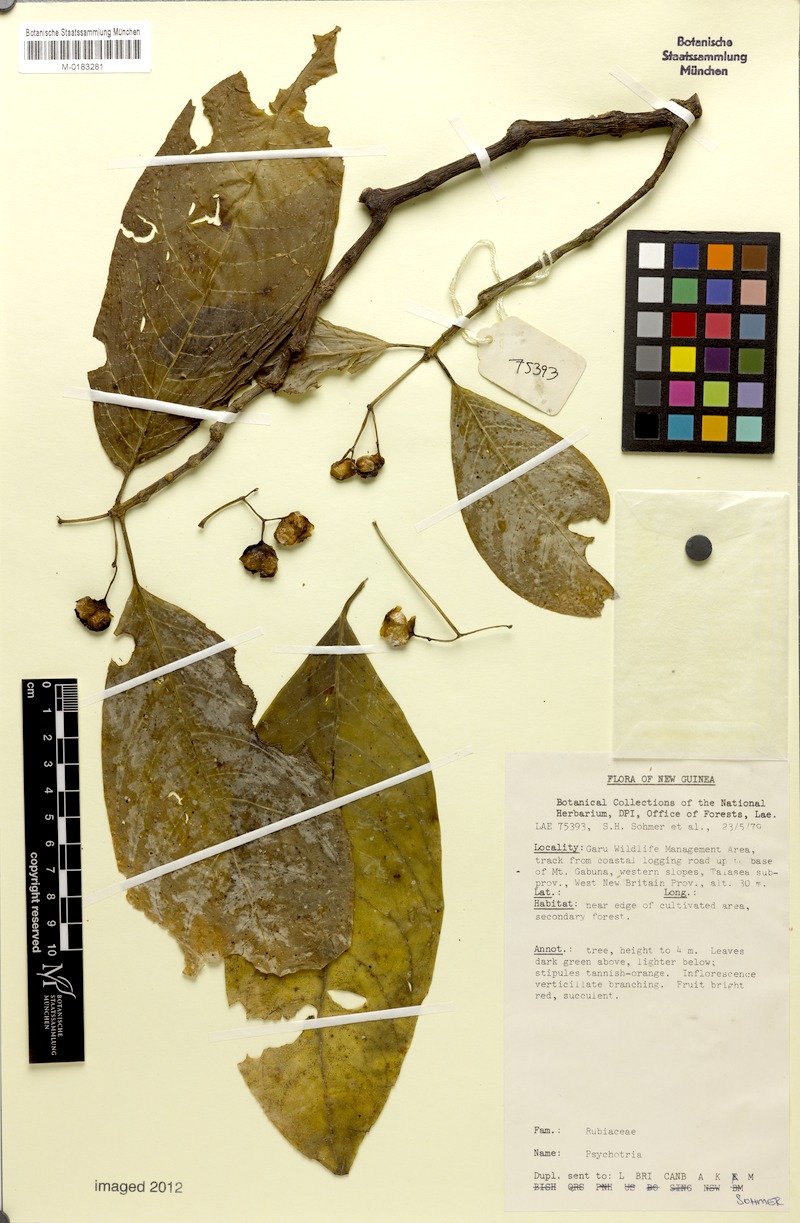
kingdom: Plantae
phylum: Tracheophyta
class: Magnoliopsida
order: Gentianales
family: Rubiaceae
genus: Eumachia
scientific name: Eumachia damasiana
